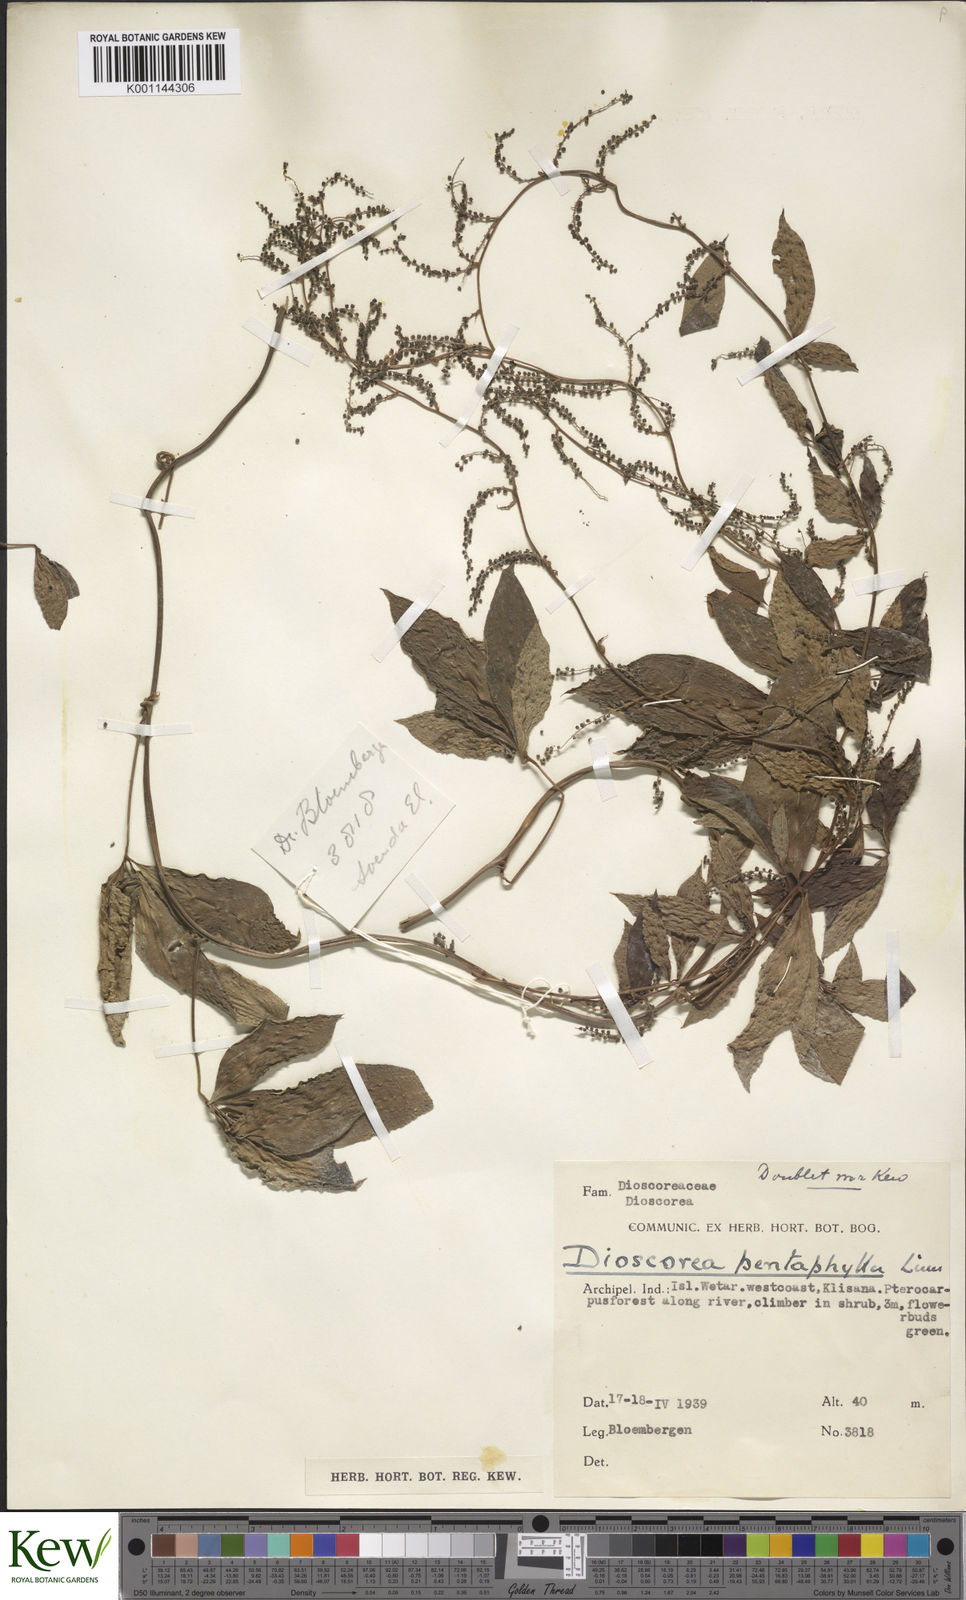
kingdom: Plantae
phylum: Tracheophyta
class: Liliopsida
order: Dioscoreales
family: Dioscoreaceae
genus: Dioscorea
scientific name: Dioscorea pentaphylla
